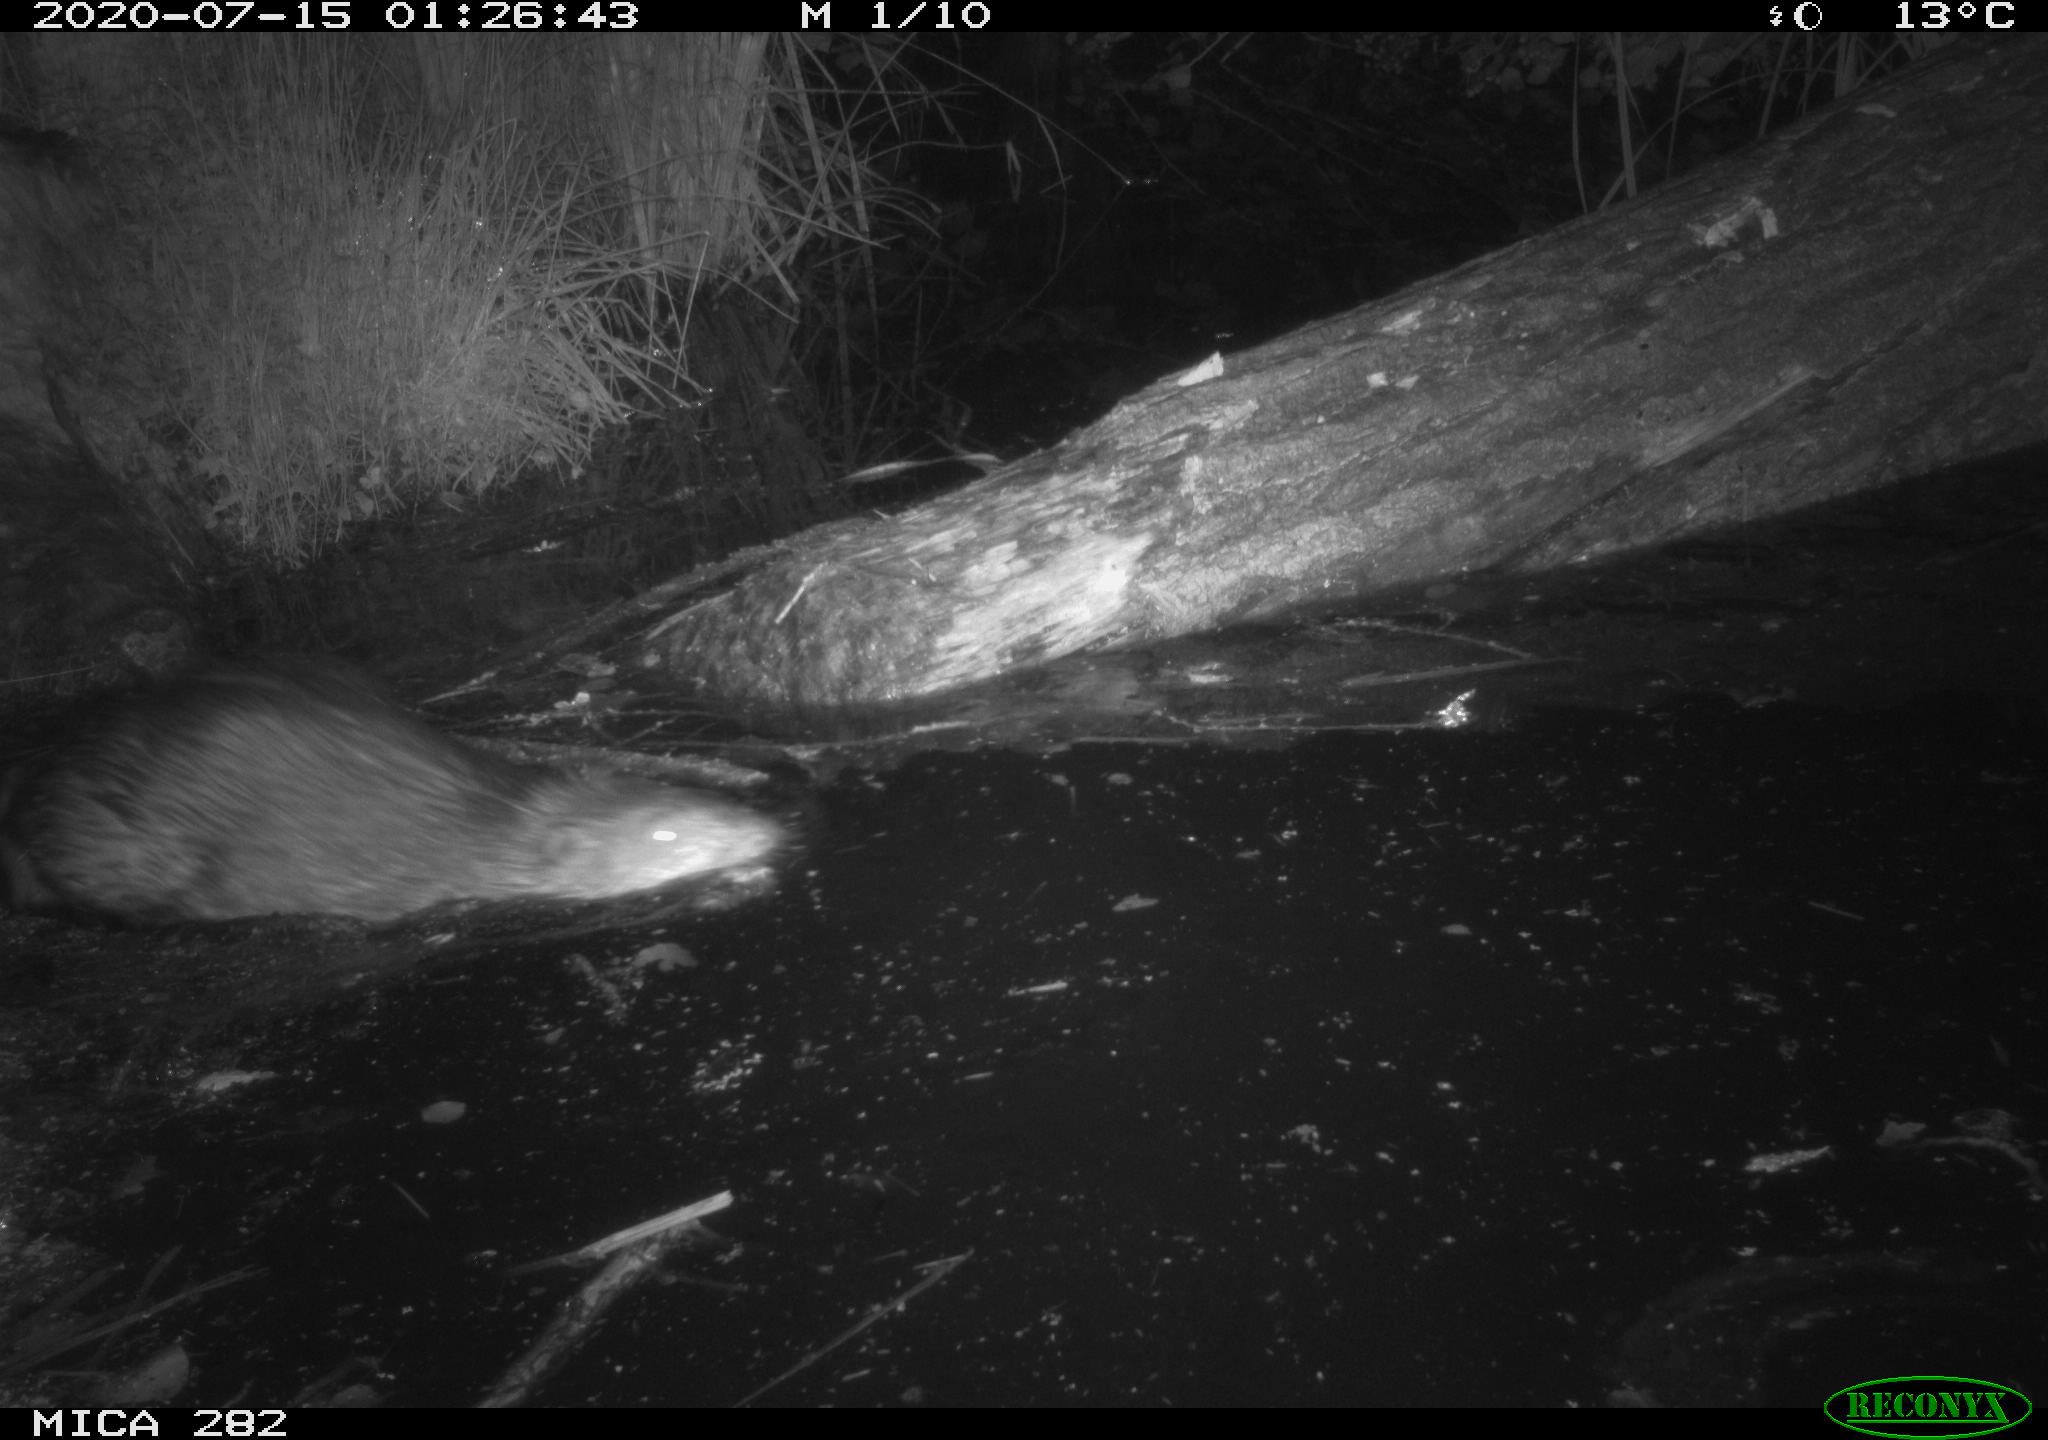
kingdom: Animalia
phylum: Chordata
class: Mammalia
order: Rodentia
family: Castoridae
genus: Castor
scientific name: Castor fiber
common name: Eurasian beaver
